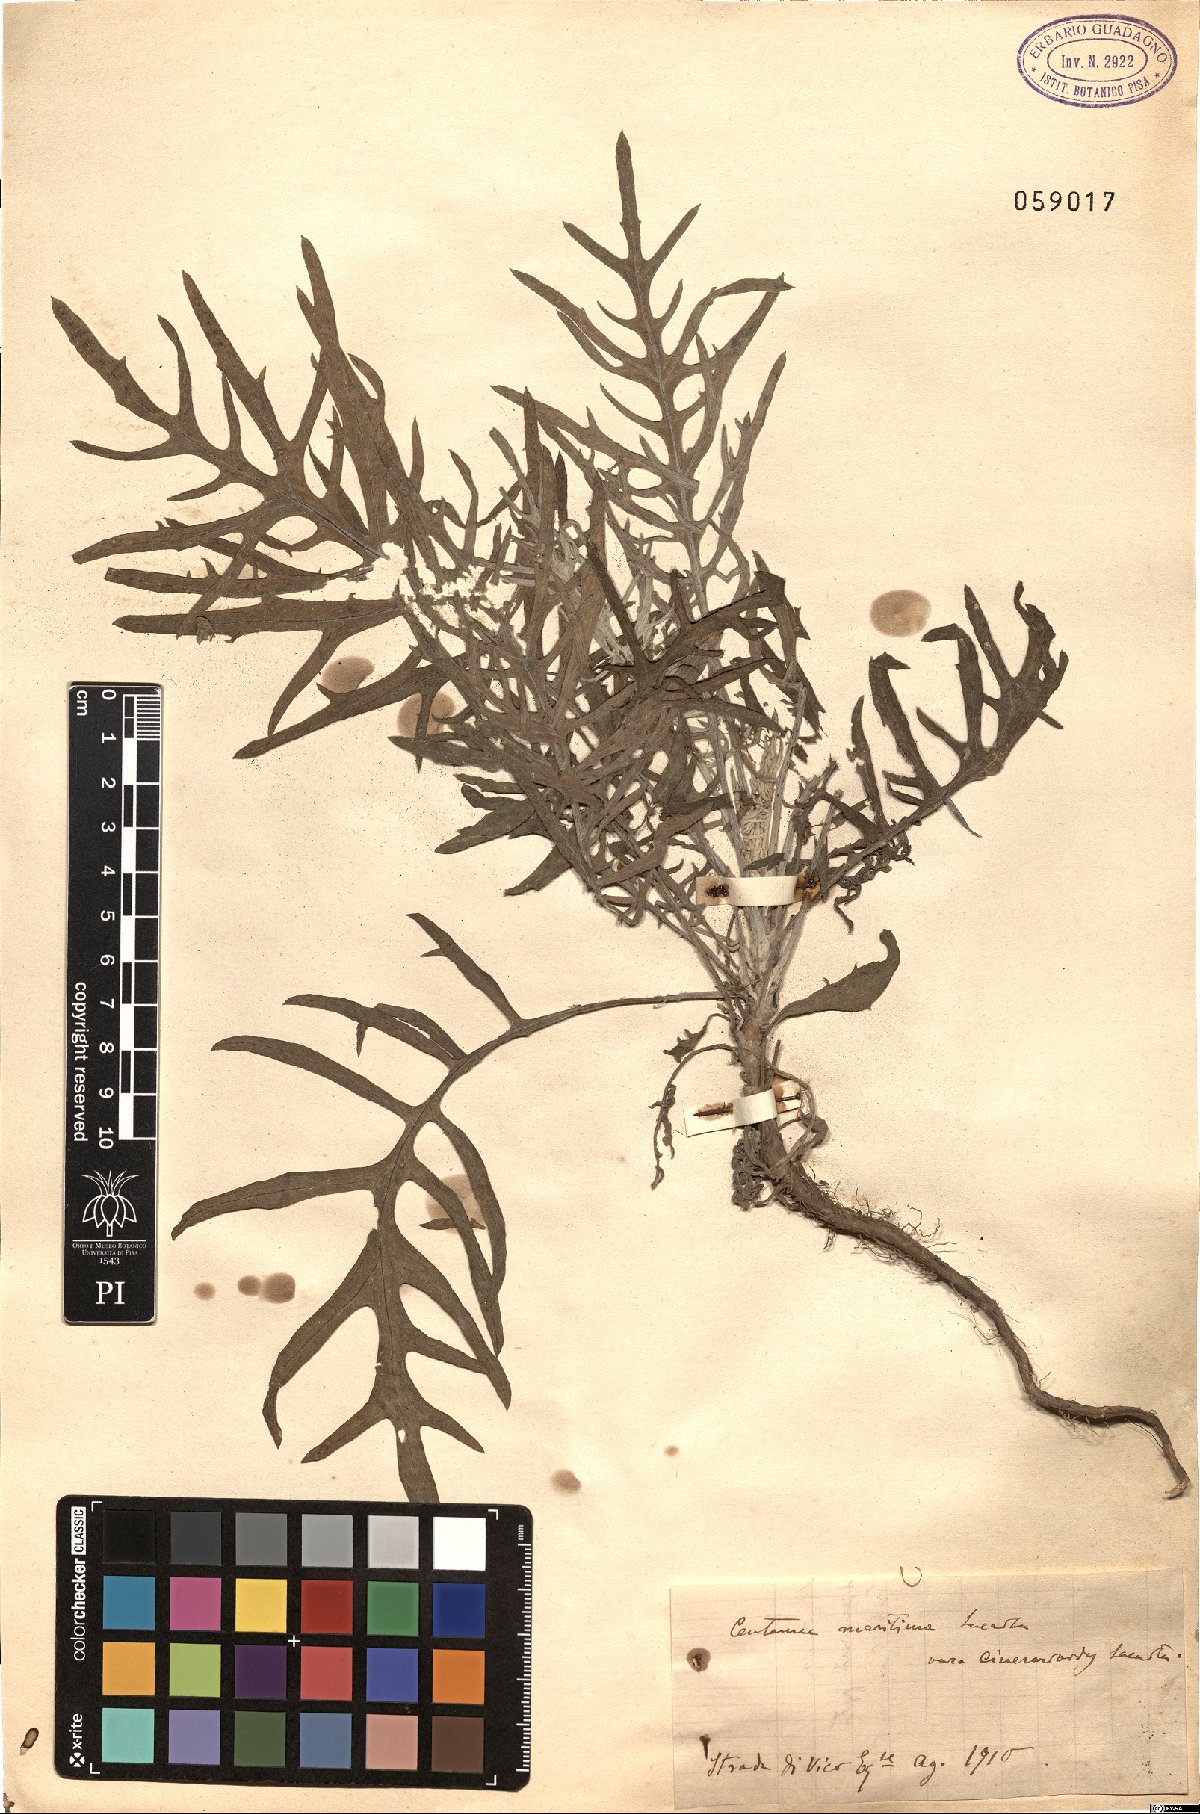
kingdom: Plantae
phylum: Tracheophyta
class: Magnoliopsida
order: Asterales
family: Asteraceae
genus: Centaurea
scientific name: Centaurea maritima
